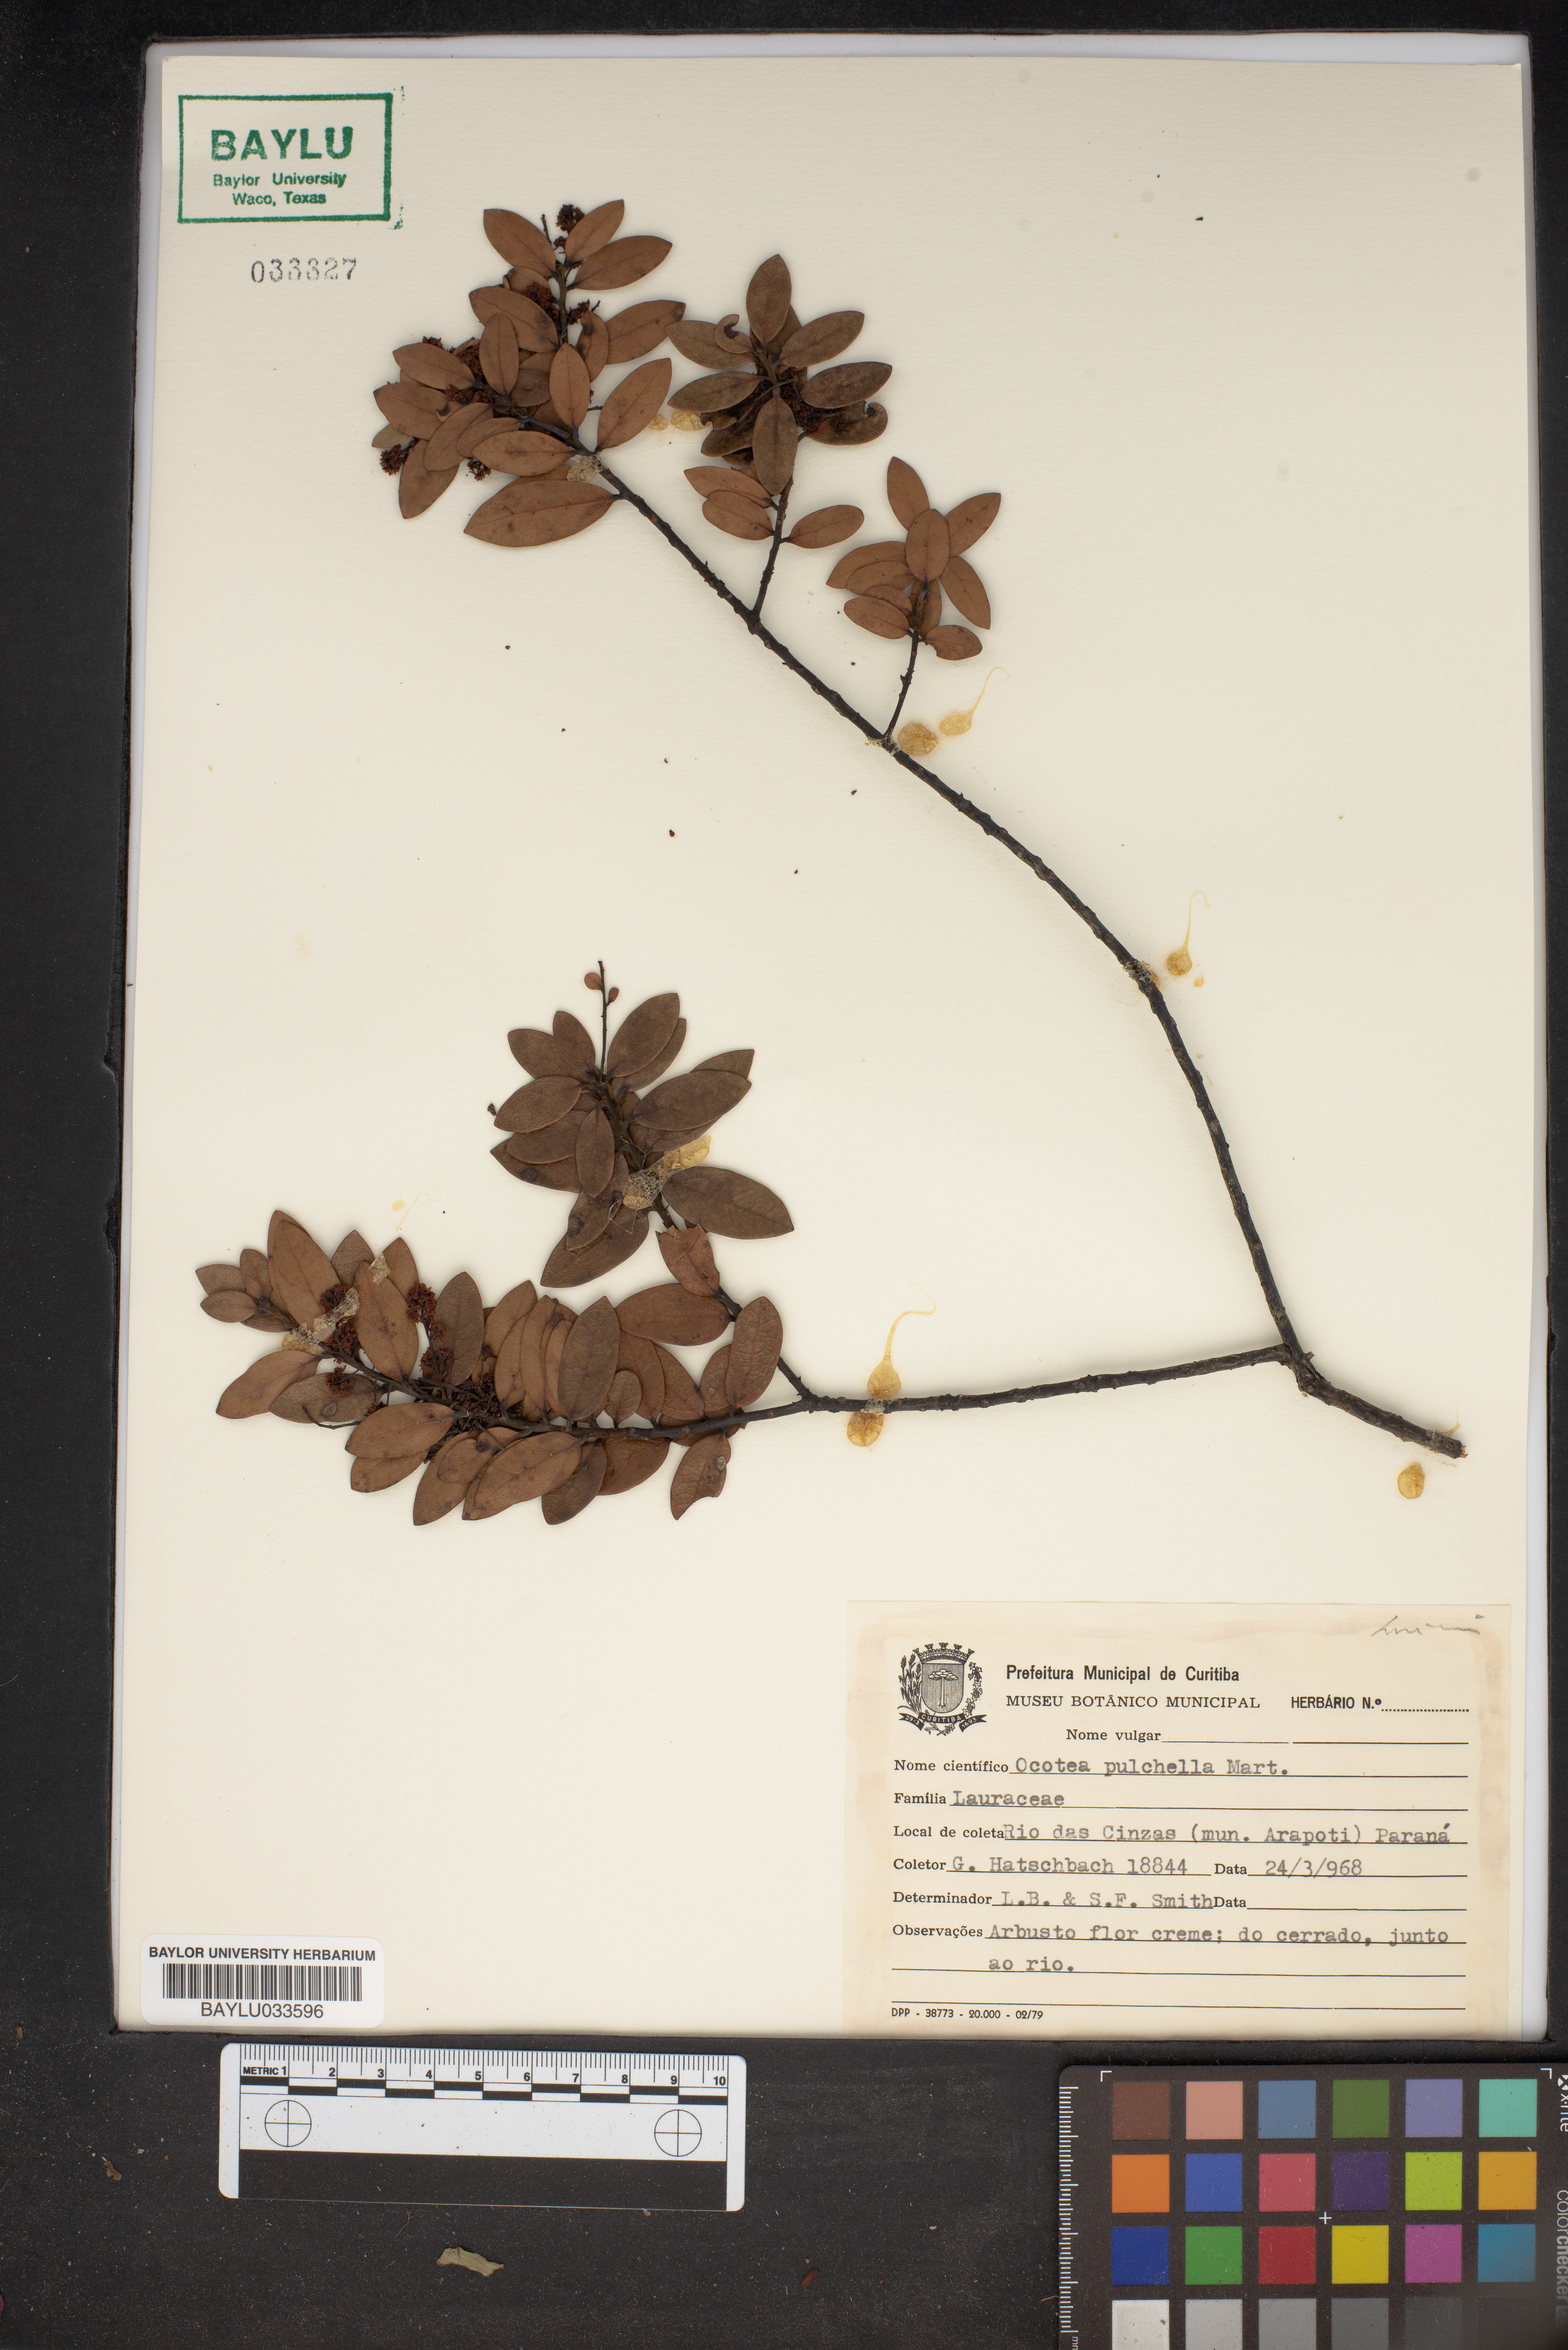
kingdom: Plantae
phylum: Tracheophyta
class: Magnoliopsida
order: Laurales
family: Lauraceae
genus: Mespilodaphne
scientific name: Mespilodaphne pulchella
